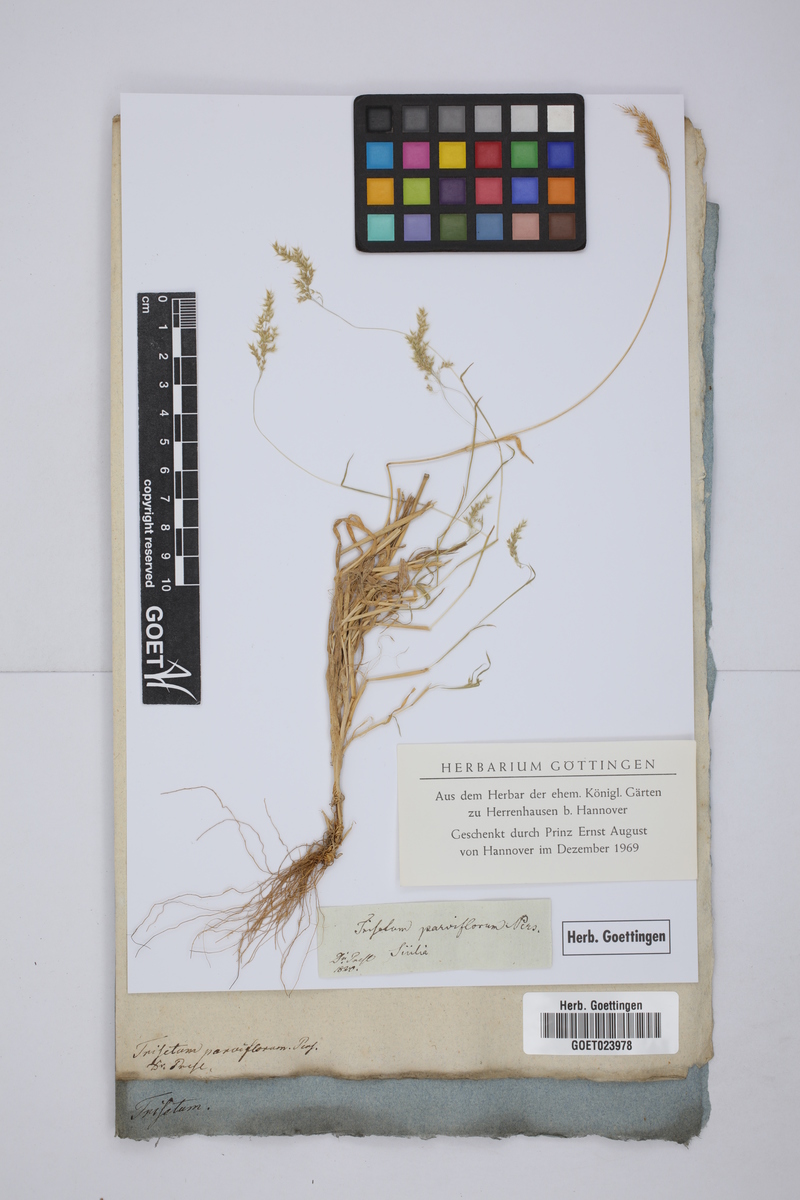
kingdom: Plantae
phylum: Tracheophyta
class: Liliopsida
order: Poales
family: Poaceae
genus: Trisetaria
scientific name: Trisetaria parviflora
